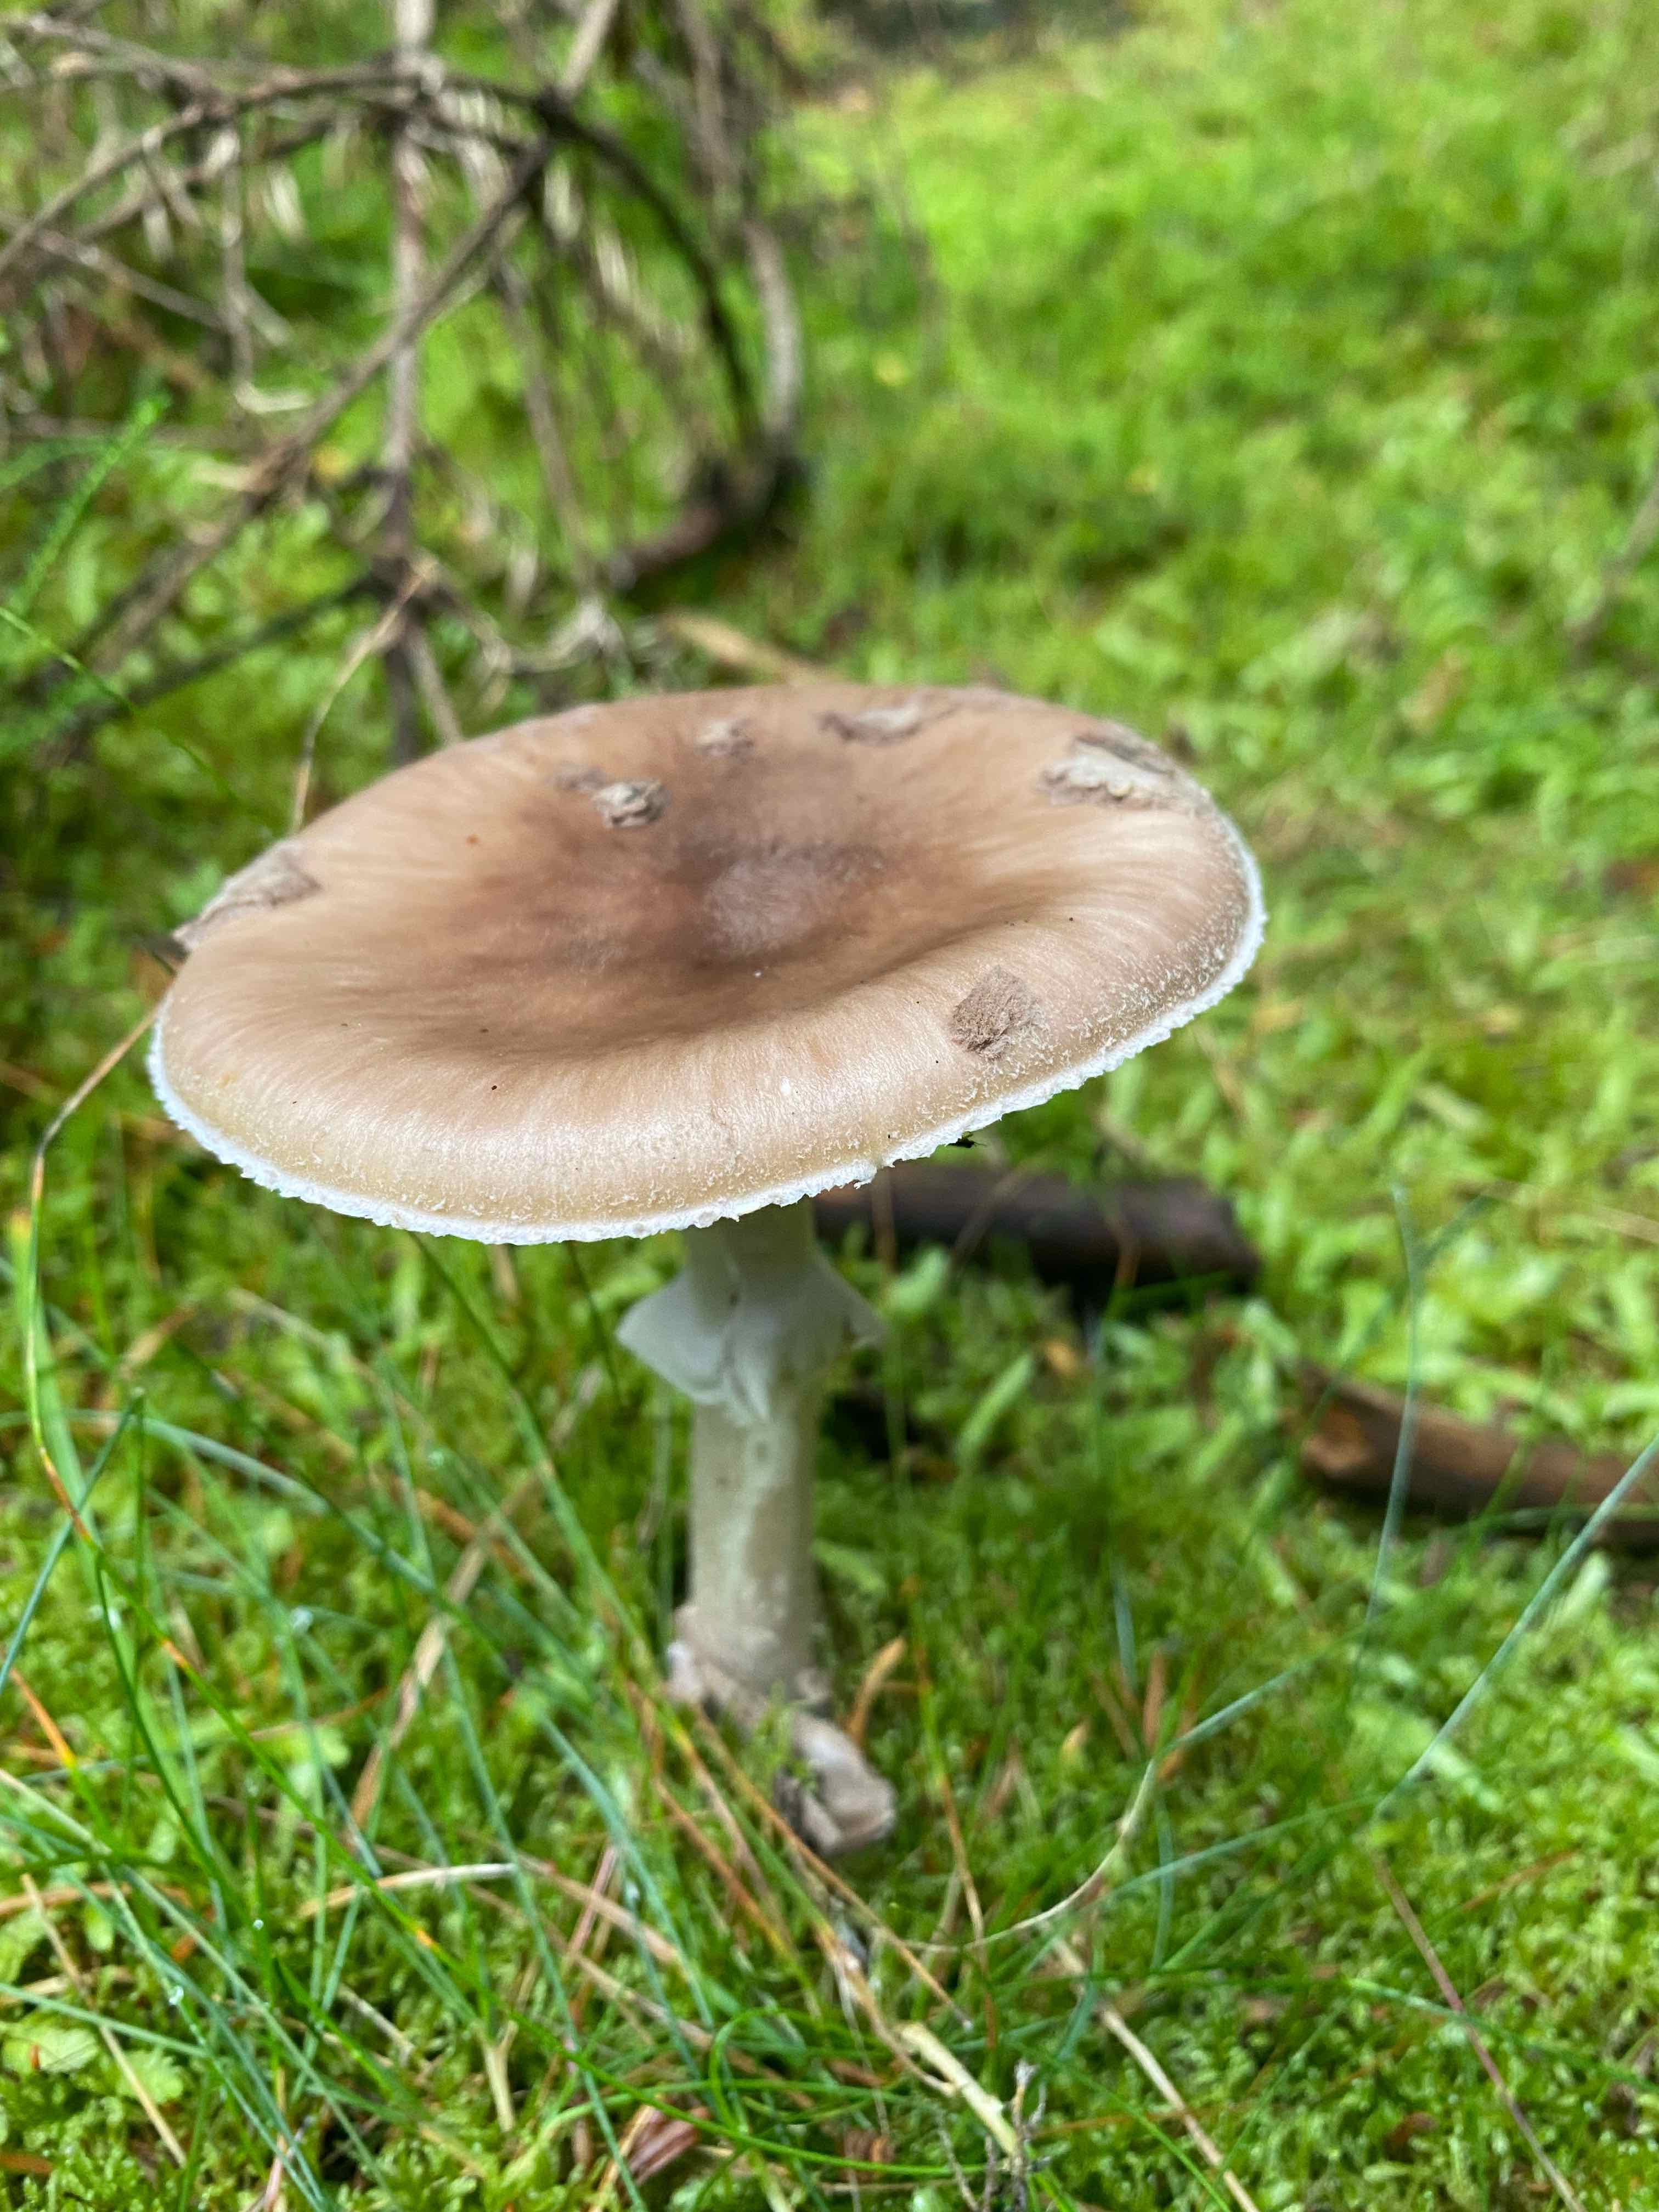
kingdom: Fungi
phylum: Basidiomycota
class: Agaricomycetes
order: Agaricales
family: Amanitaceae
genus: Amanita
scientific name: Amanita porphyria
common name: porfyr-fluesvamp
